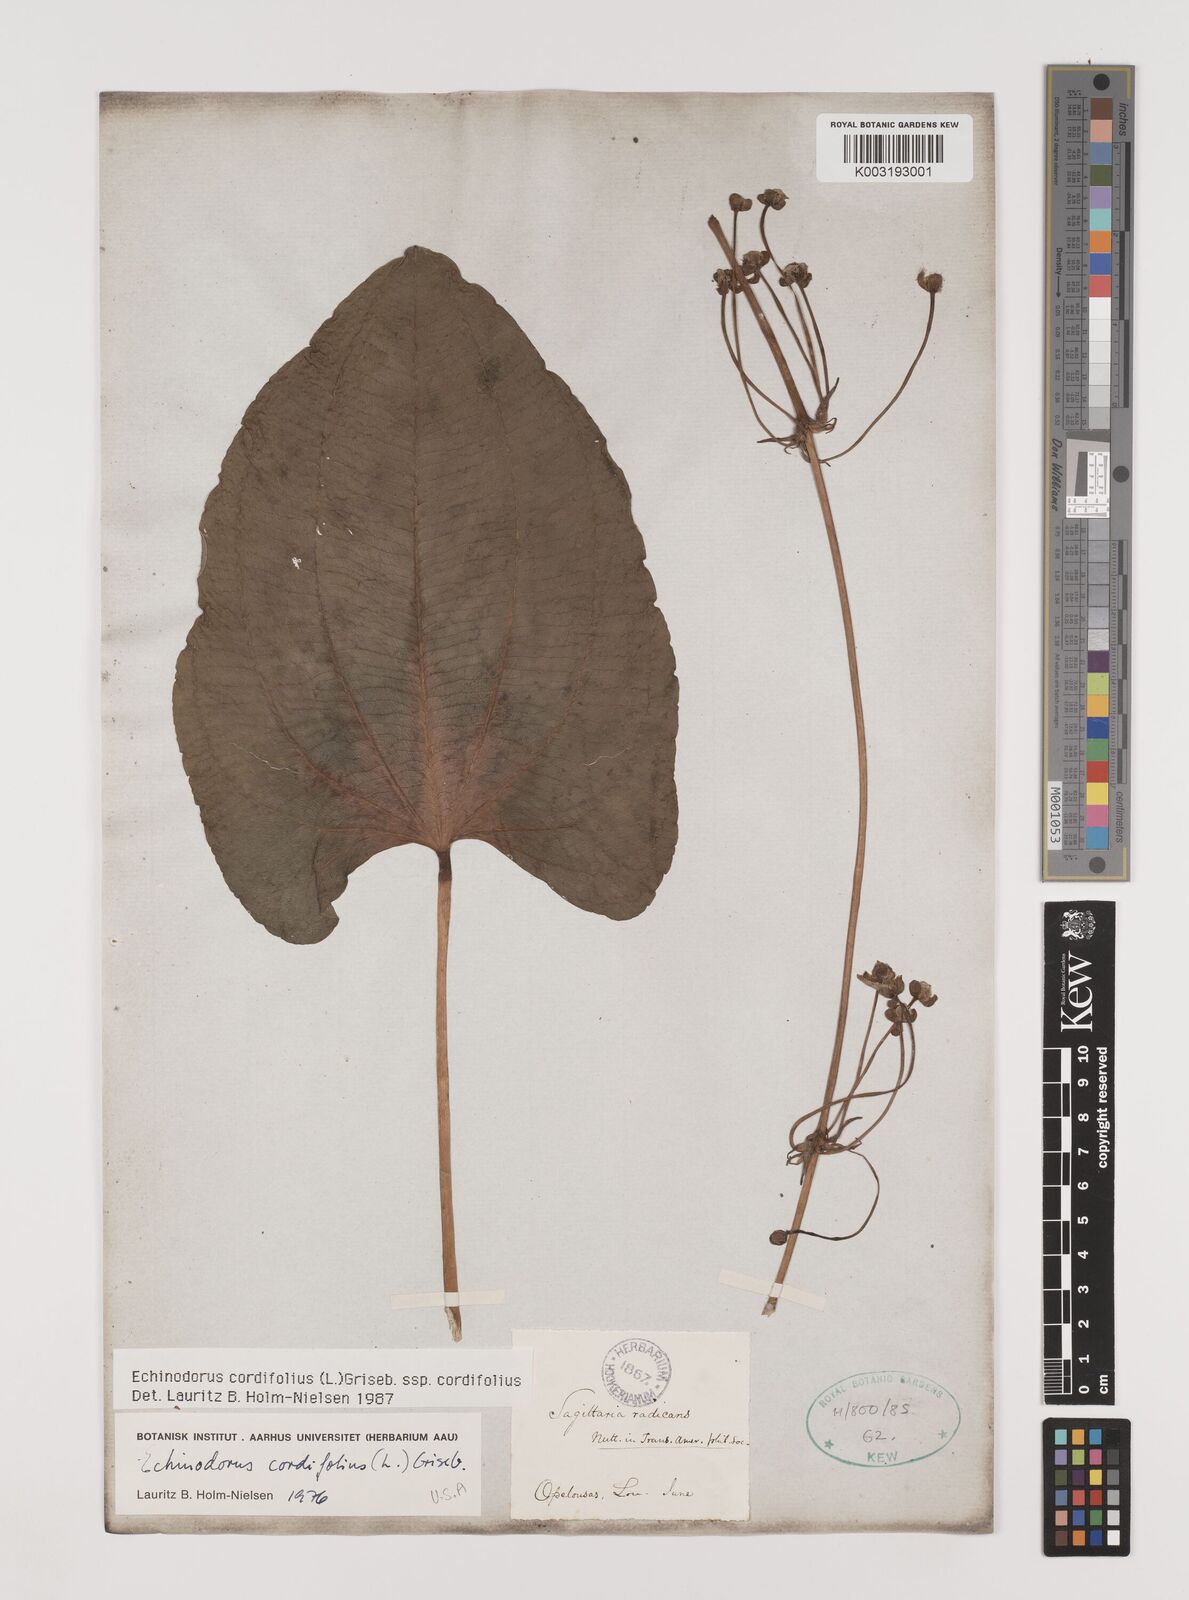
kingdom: Plantae
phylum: Tracheophyta
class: Liliopsida
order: Alismatales
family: Alismataceae
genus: Aquarius
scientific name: Aquarius cordifolius
